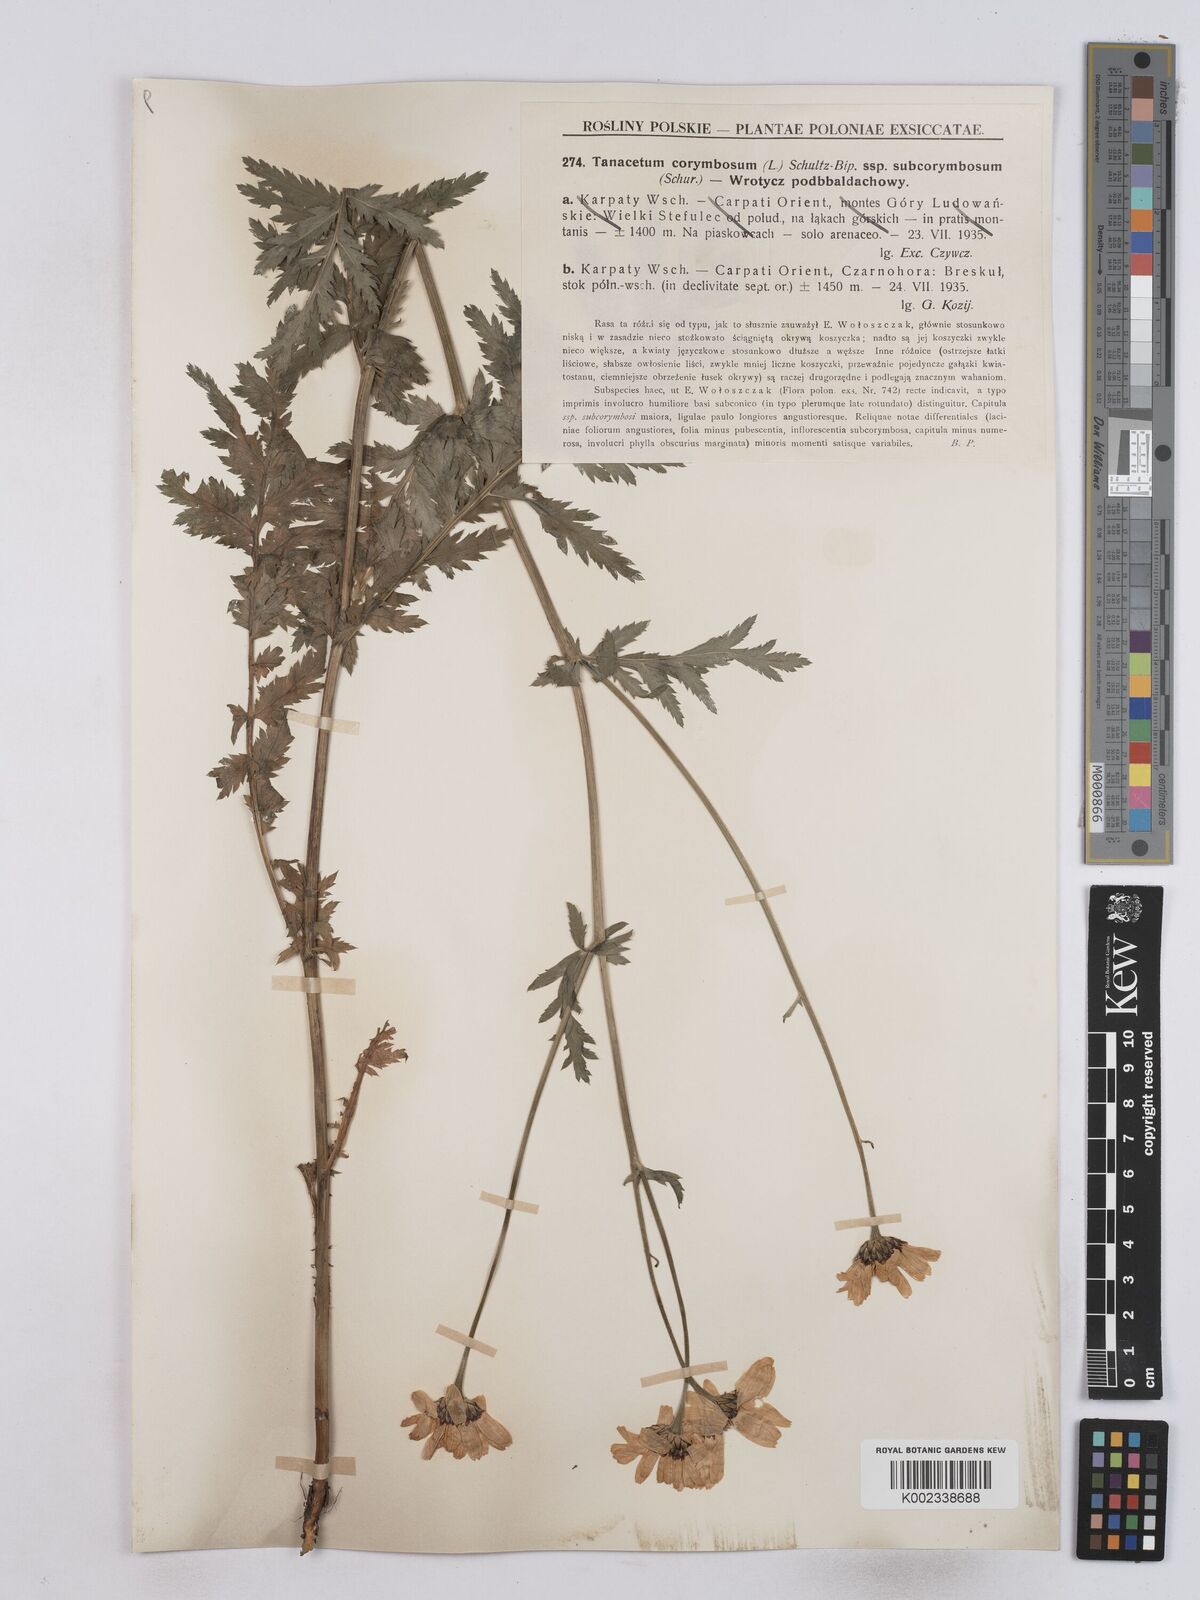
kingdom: Plantae
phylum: Tracheophyta
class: Magnoliopsida
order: Asterales
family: Asteraceae
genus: Tanacetum
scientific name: Tanacetum corymbosum
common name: Scentless feverfew
